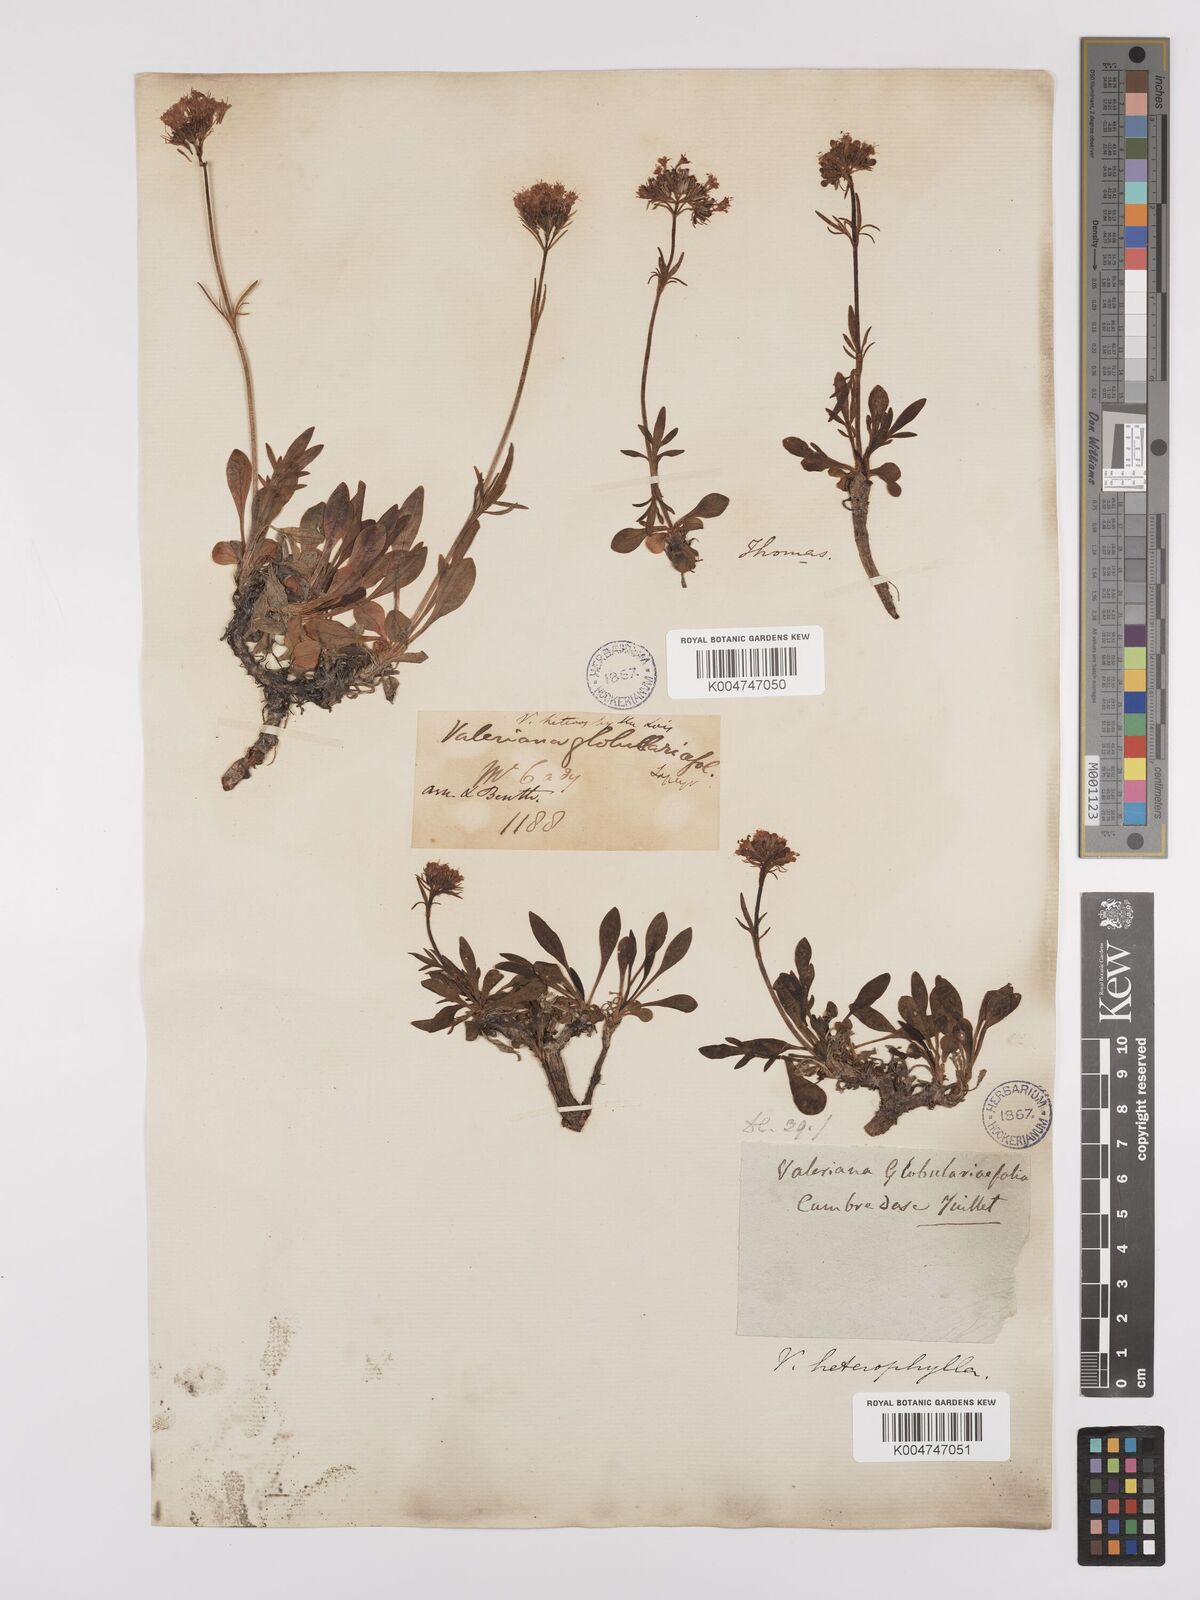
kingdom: Plantae
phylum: Tracheophyta
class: Magnoliopsida
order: Dipsacales
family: Caprifoliaceae
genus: Valeriana
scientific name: Valeriana apula
